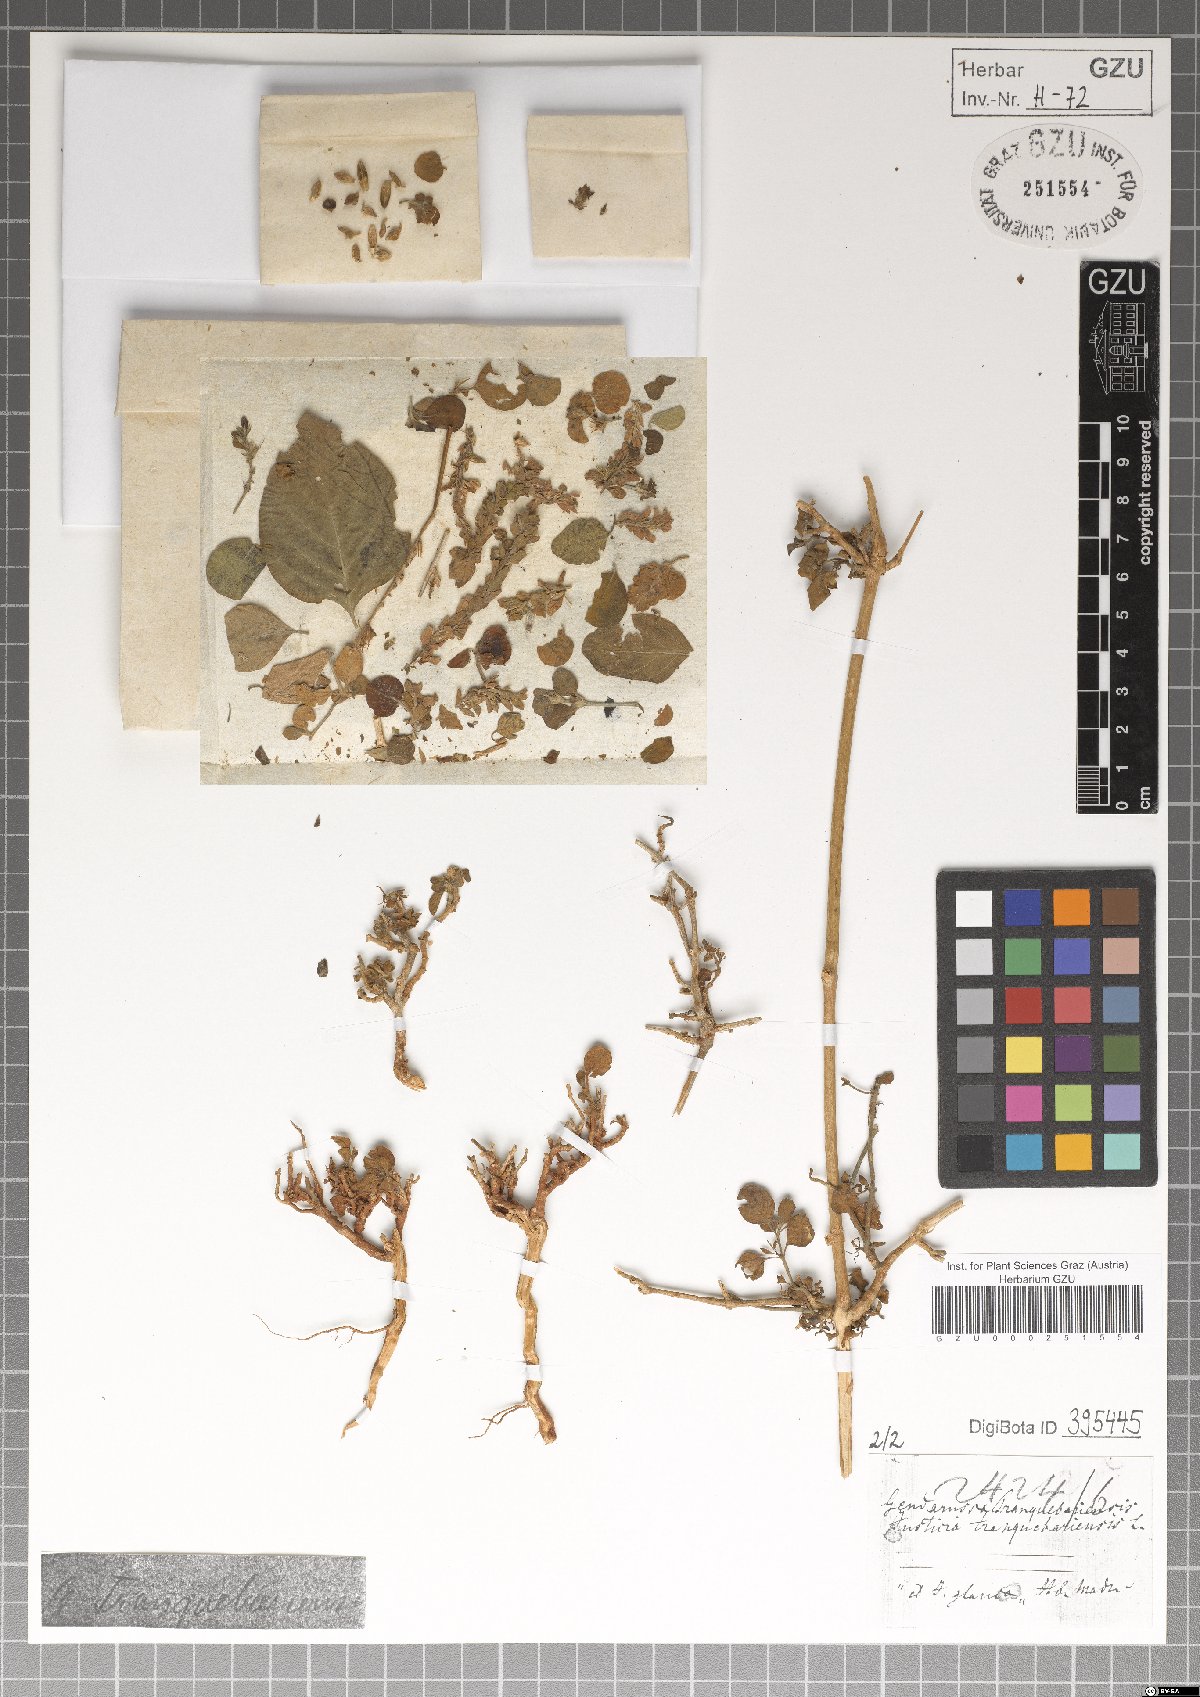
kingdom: Plantae
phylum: Tracheophyta
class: Magnoliopsida
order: Lamiales
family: Acanthaceae
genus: Justicia
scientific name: Justicia tranquebariensis
